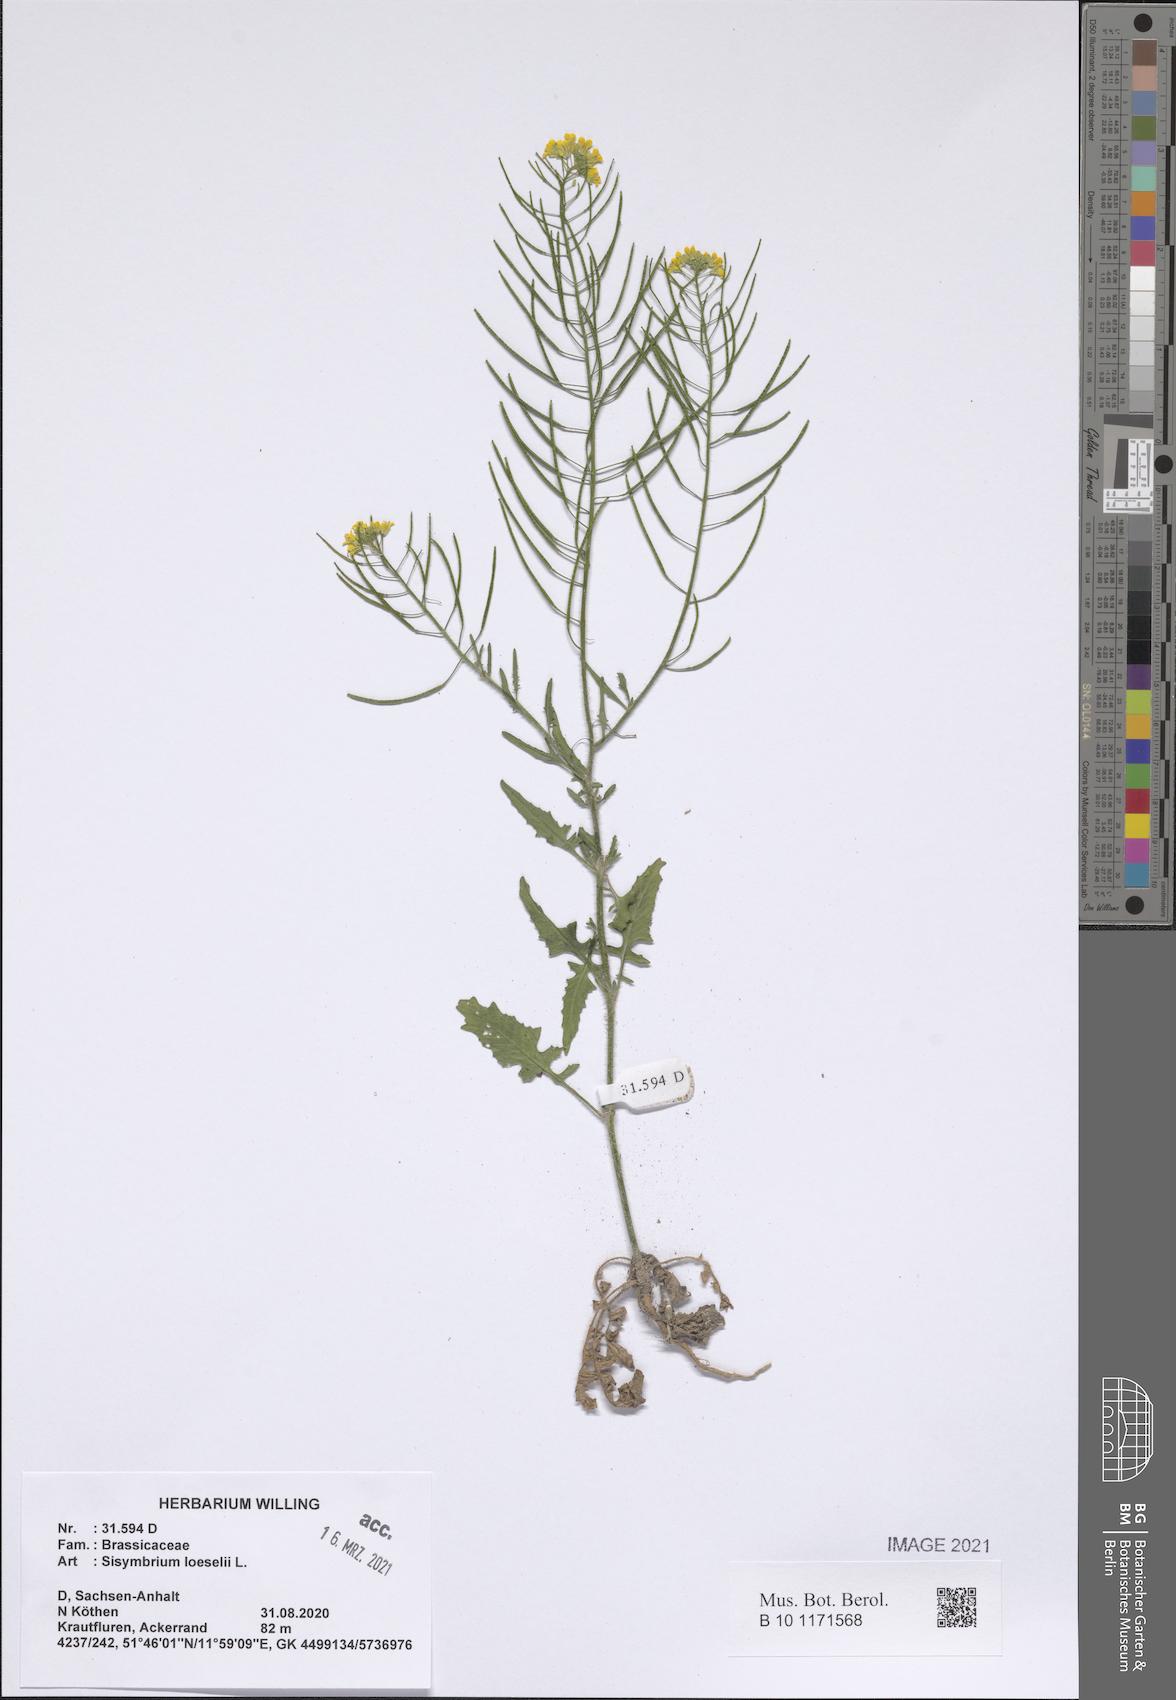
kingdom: Plantae
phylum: Tracheophyta
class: Magnoliopsida
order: Brassicales
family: Brassicaceae
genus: Sisymbrium
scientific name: Sisymbrium loeselii
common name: False london-rocket
